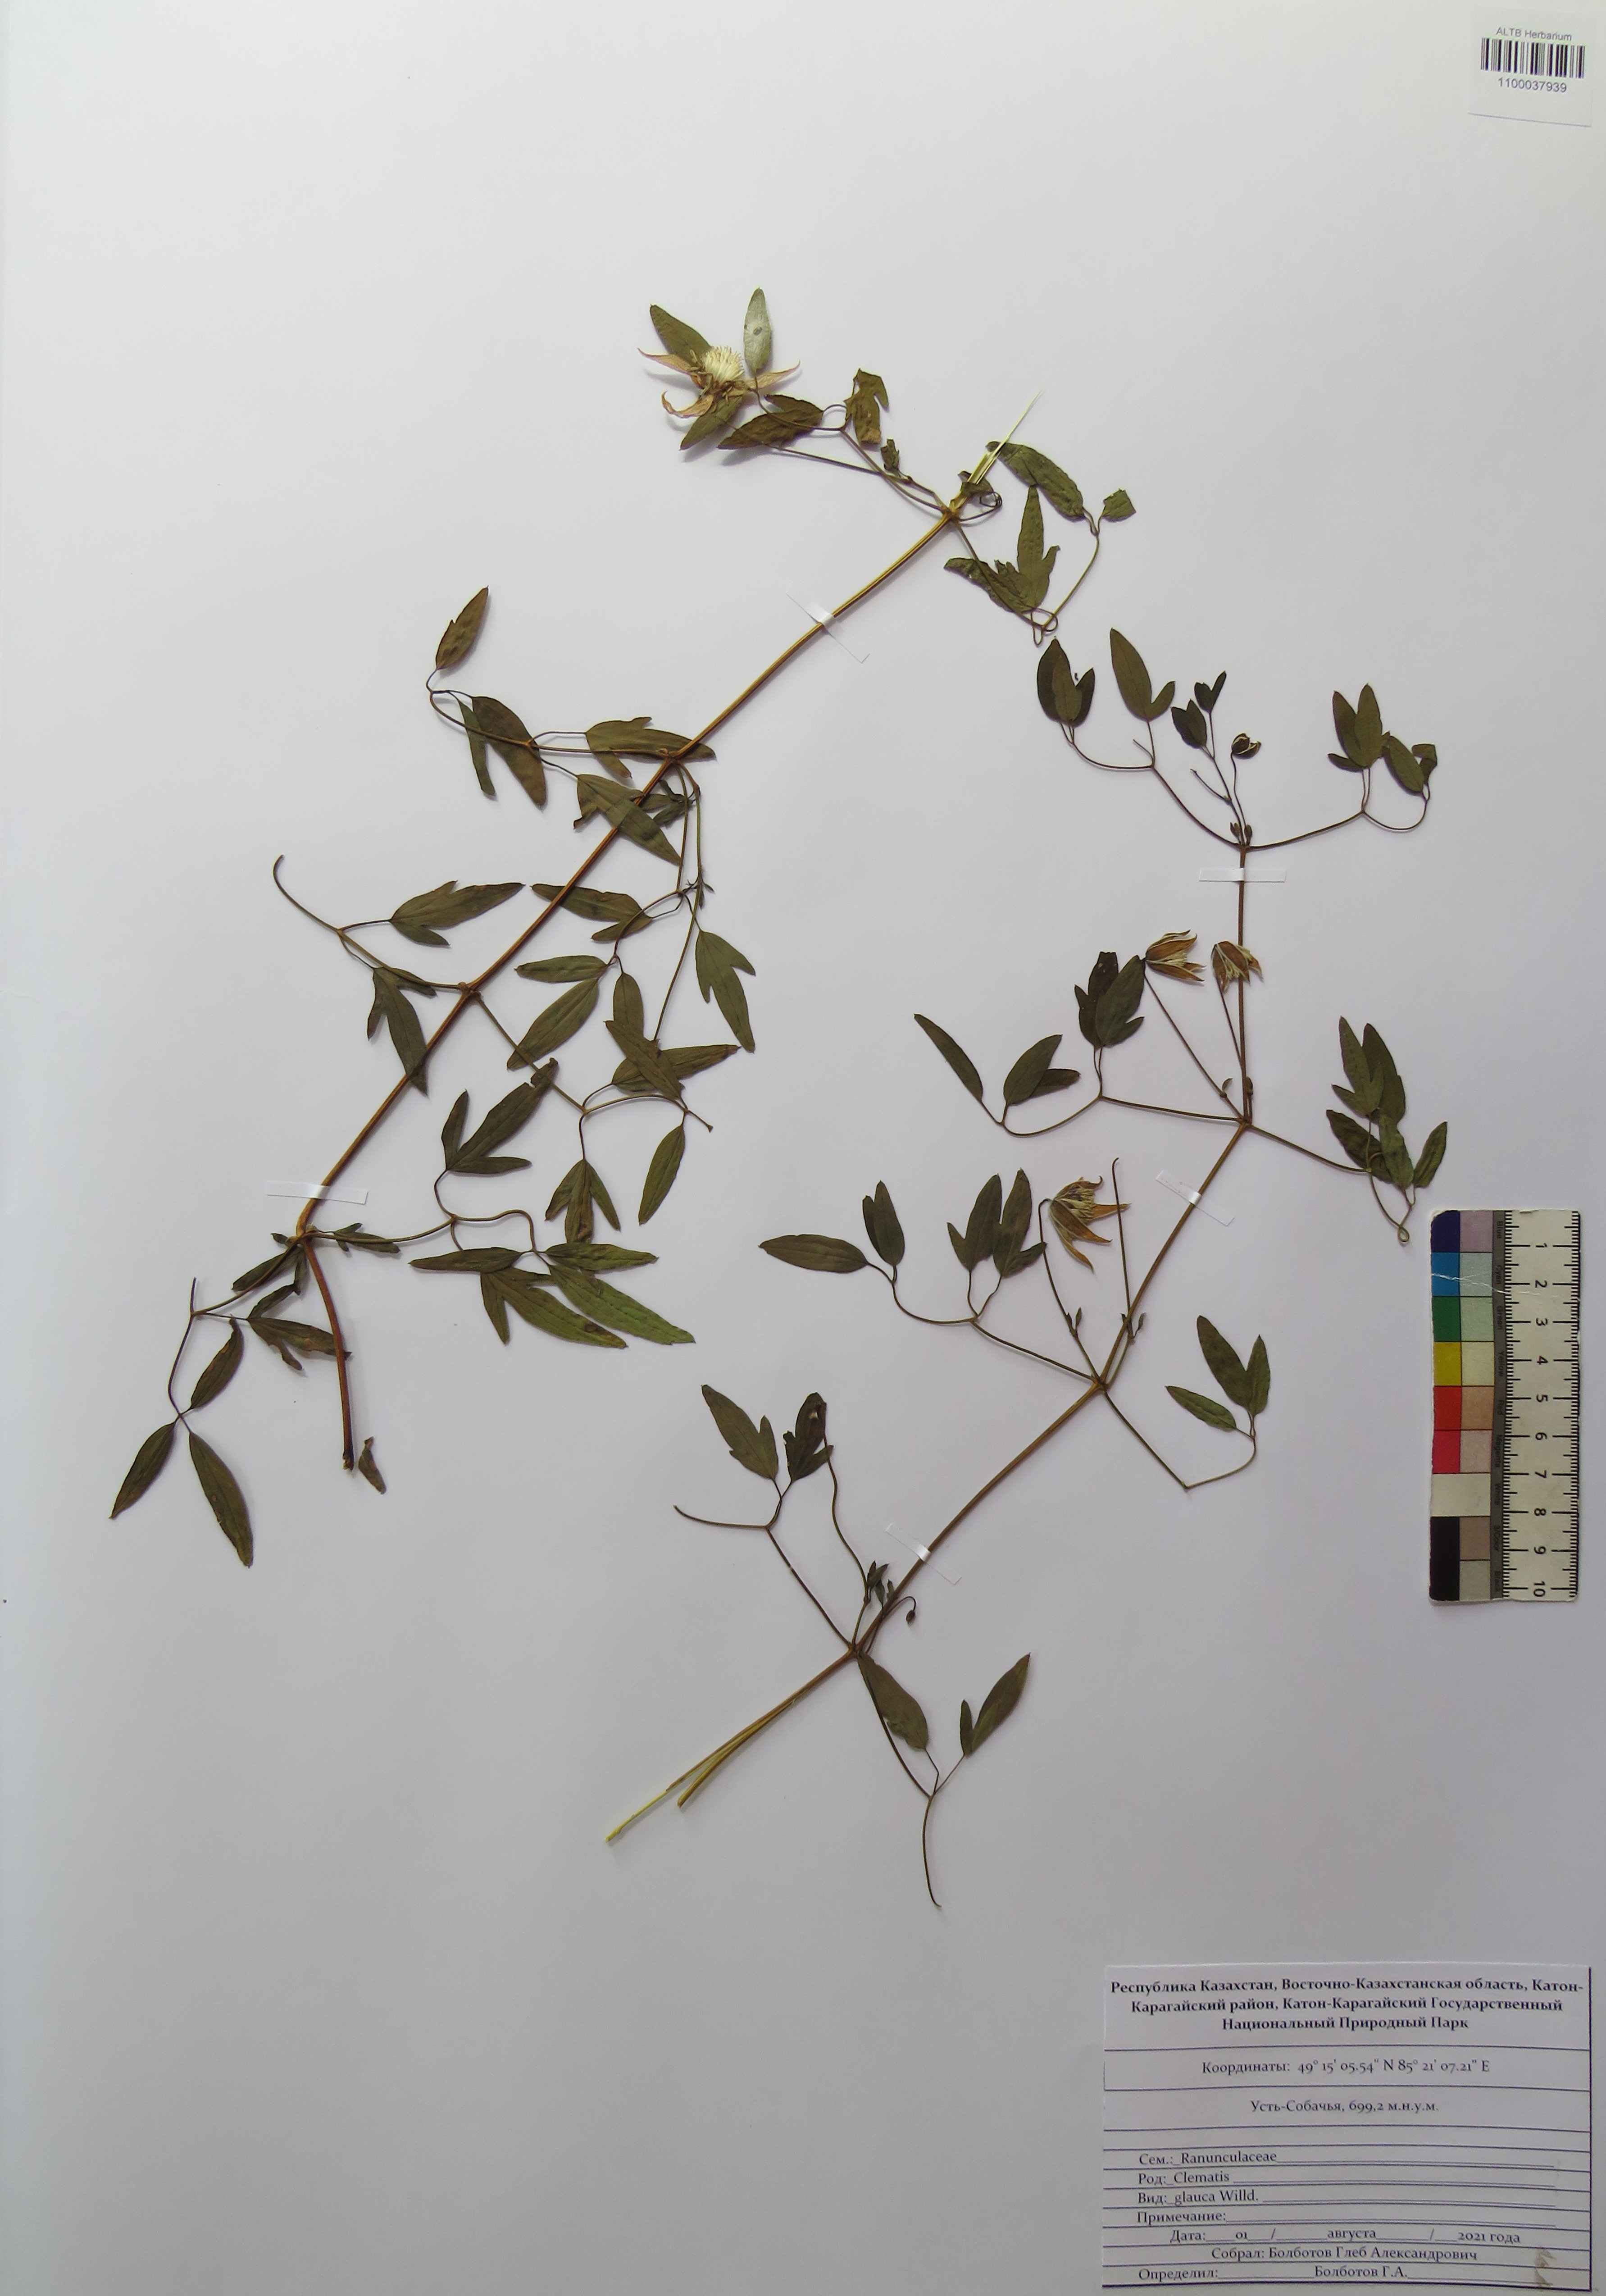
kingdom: Plantae
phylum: Tracheophyta
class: Magnoliopsida
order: Ranunculales
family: Ranunculaceae
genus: Clematis
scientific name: Clematis glauca
